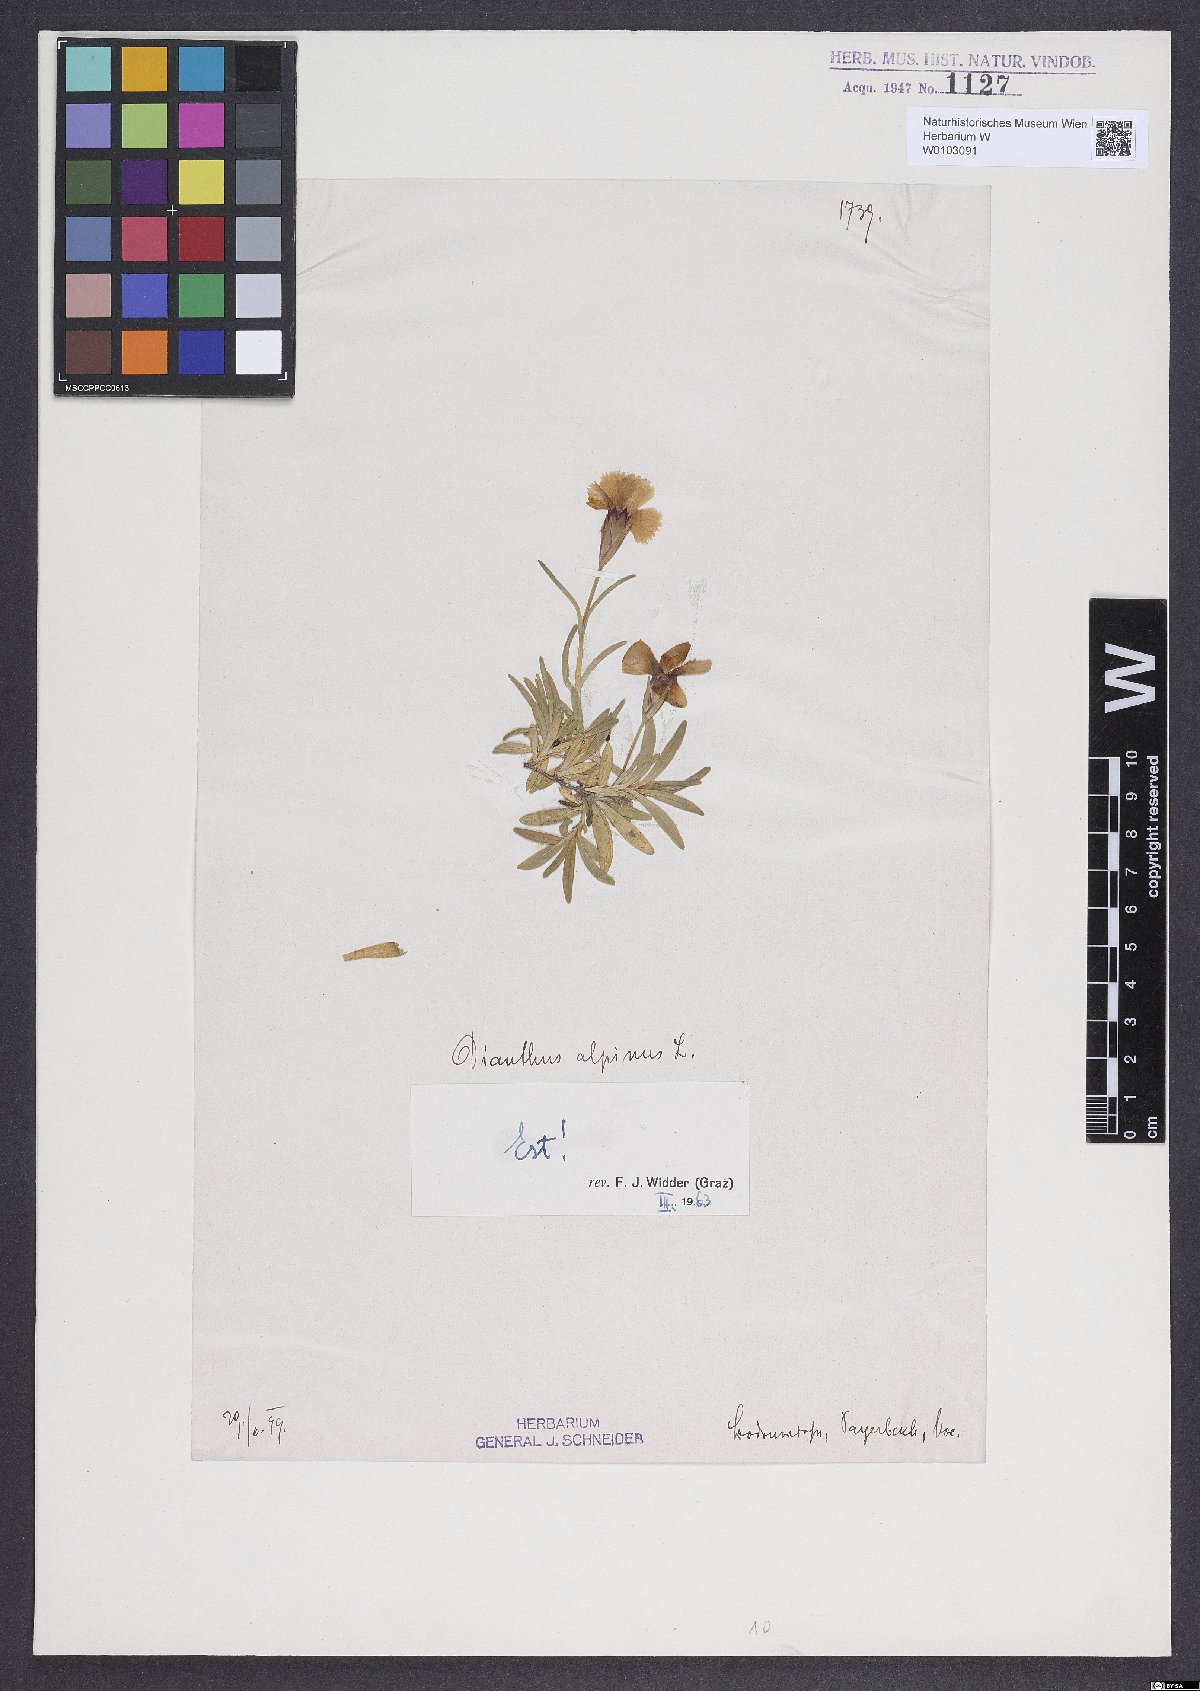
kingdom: Plantae
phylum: Tracheophyta
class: Magnoliopsida
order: Caryophyllales
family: Caryophyllaceae
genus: Dianthus
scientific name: Dianthus alpinus
